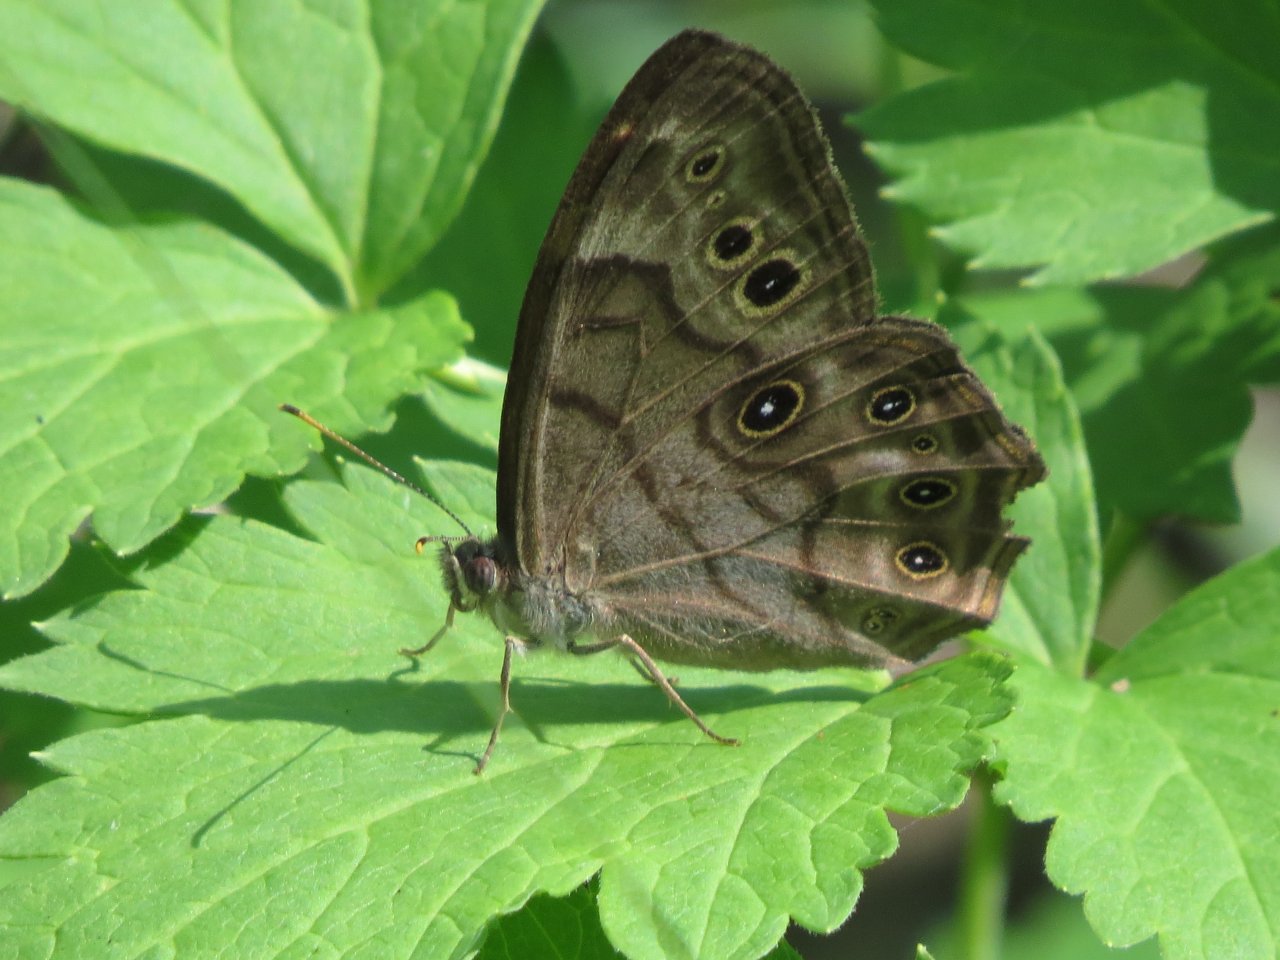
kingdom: Animalia
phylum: Arthropoda
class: Insecta
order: Lepidoptera
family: Nymphalidae
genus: Lethe
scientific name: Lethe anthedon
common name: Northern Pearly-Eye
